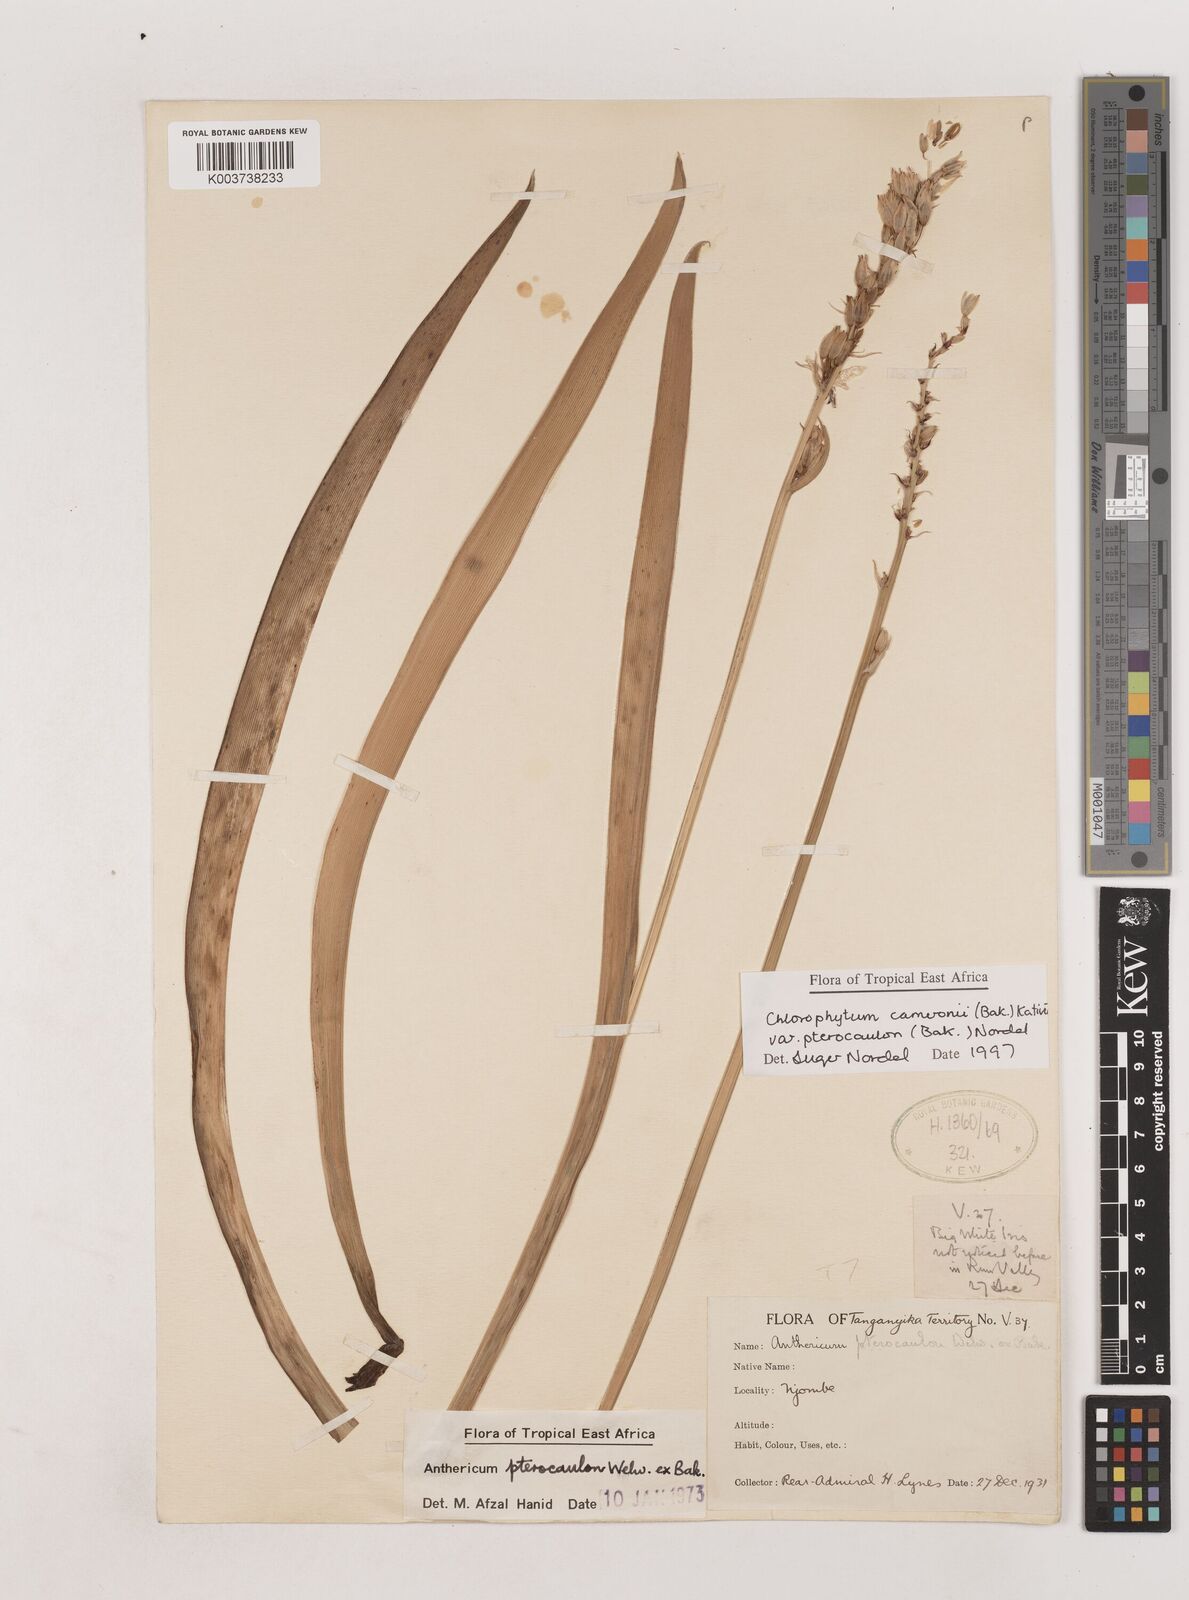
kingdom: Plantae
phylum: Tracheophyta
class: Liliopsida
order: Asparagales
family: Asparagaceae
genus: Chlorophytum
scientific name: Chlorophytum cameronii
